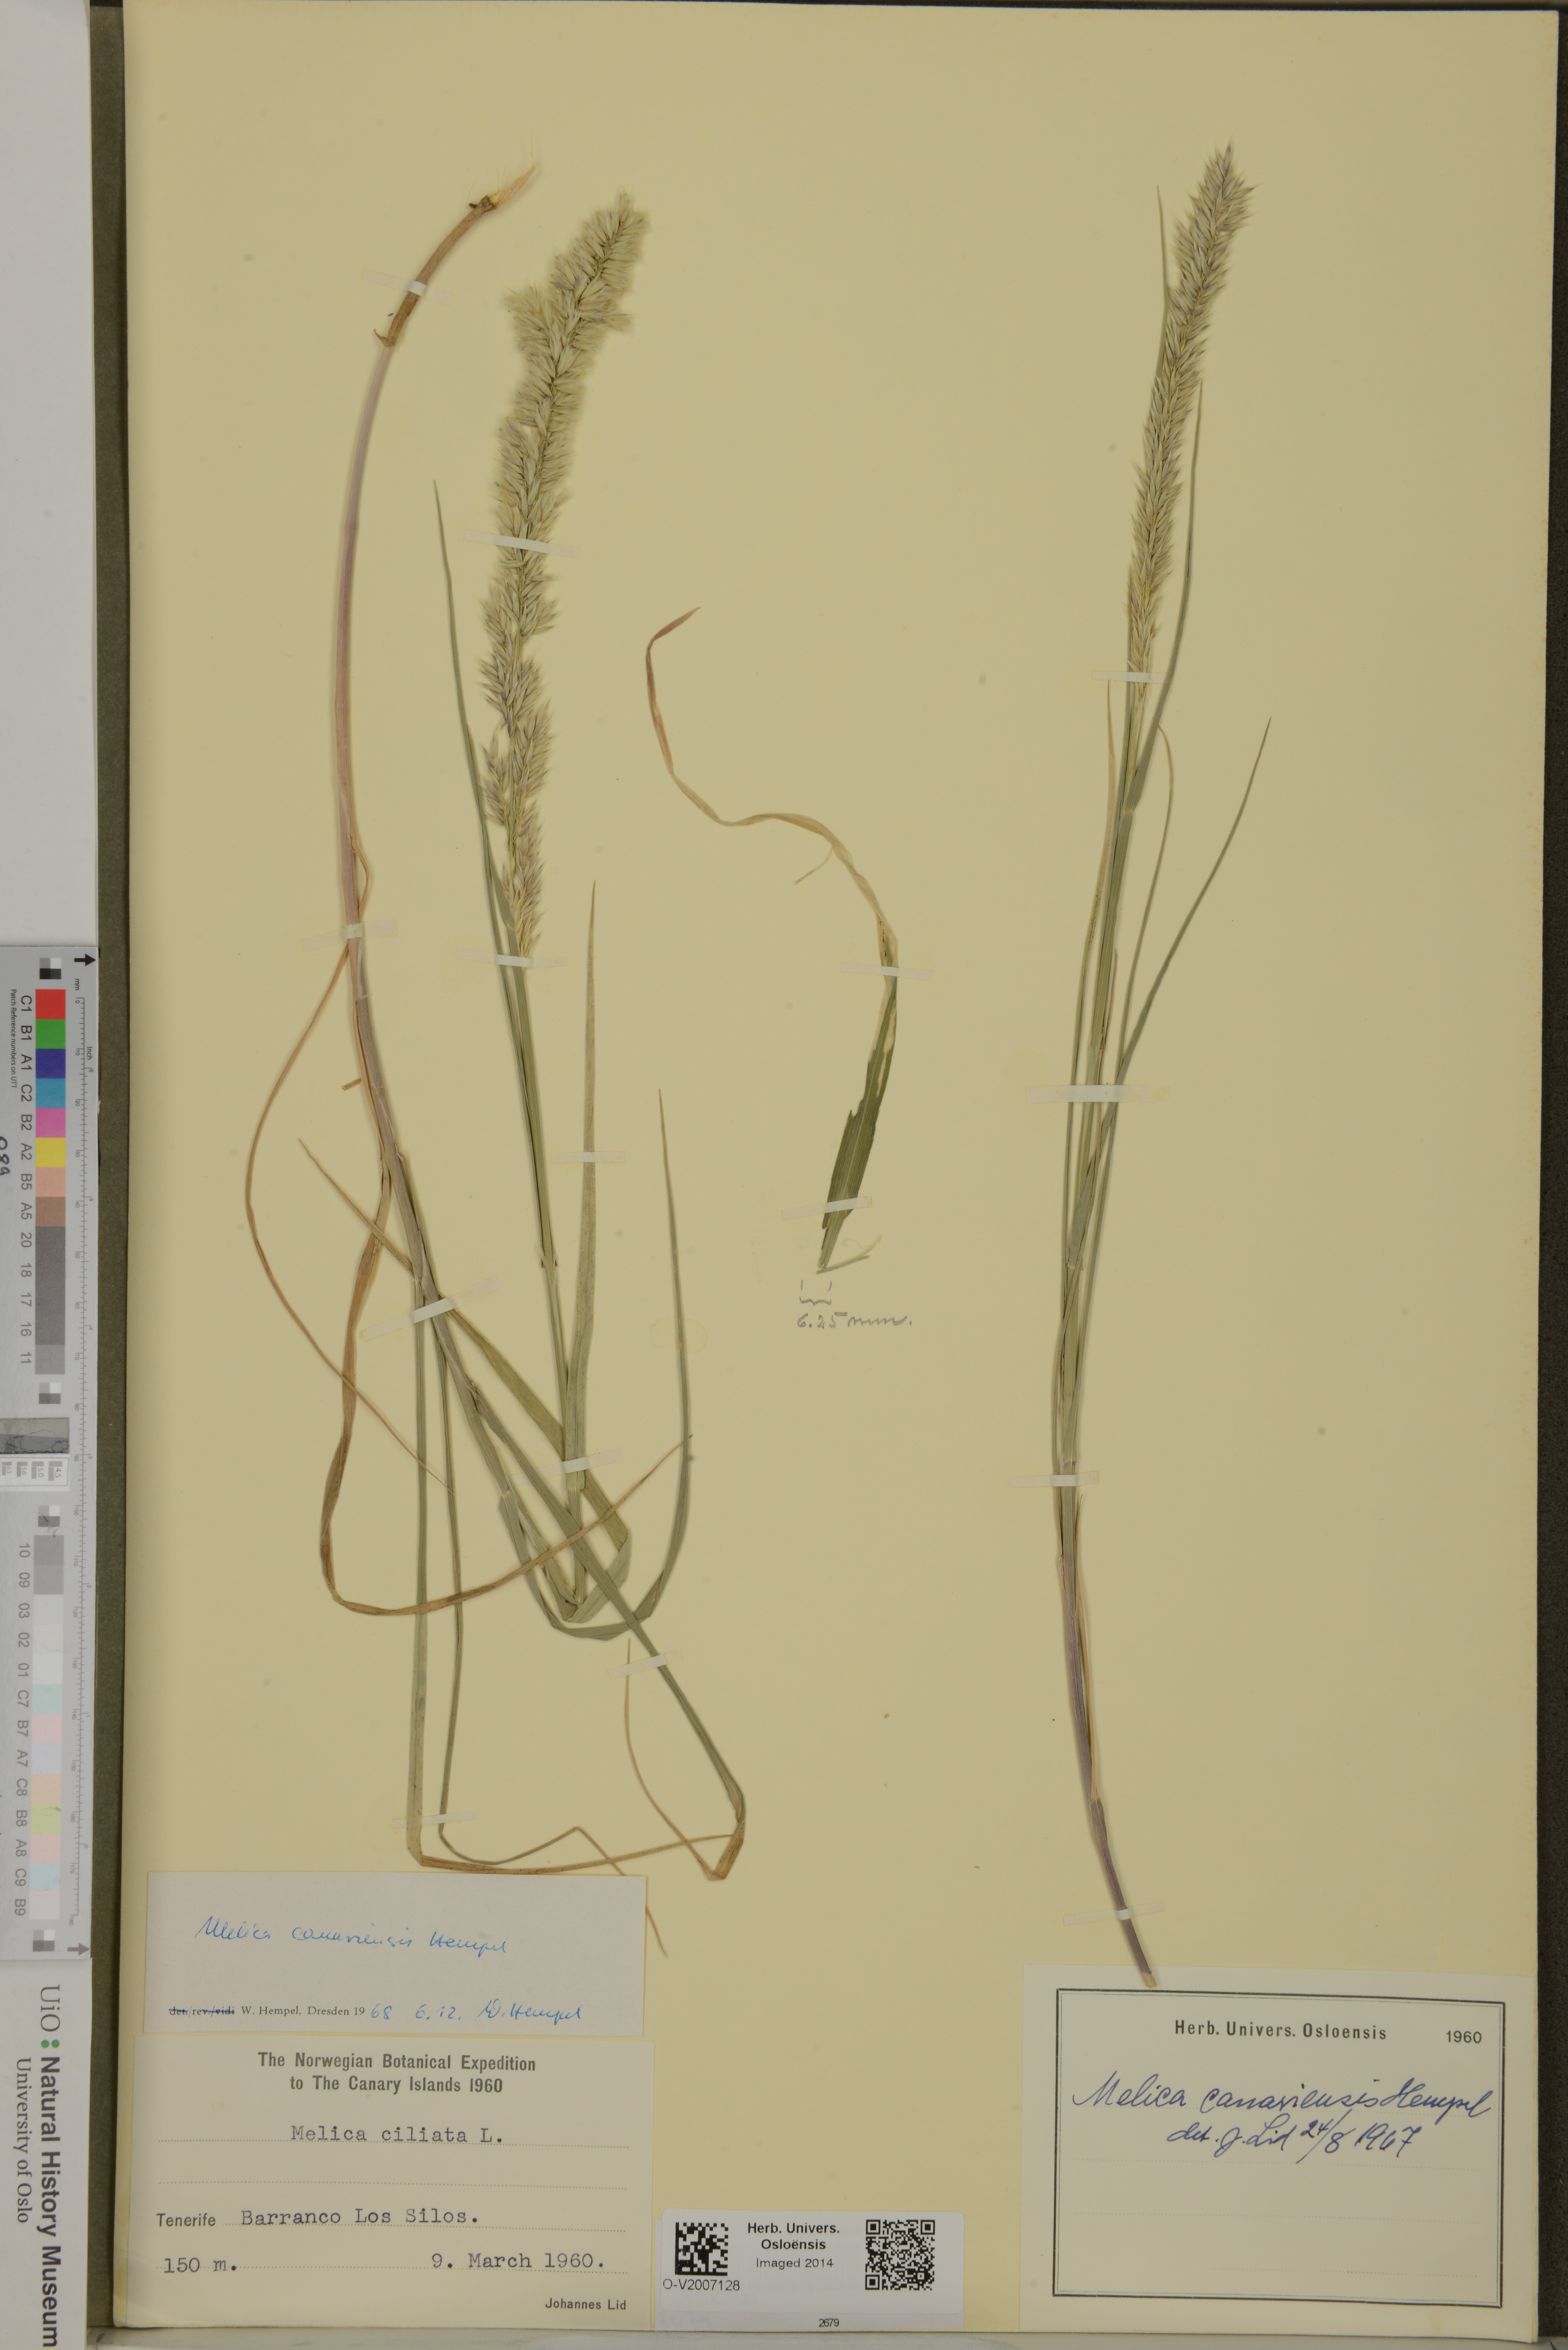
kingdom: Plantae
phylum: Tracheophyta
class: Liliopsida
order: Poales
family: Poaceae
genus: Melica
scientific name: Melica canariensis
